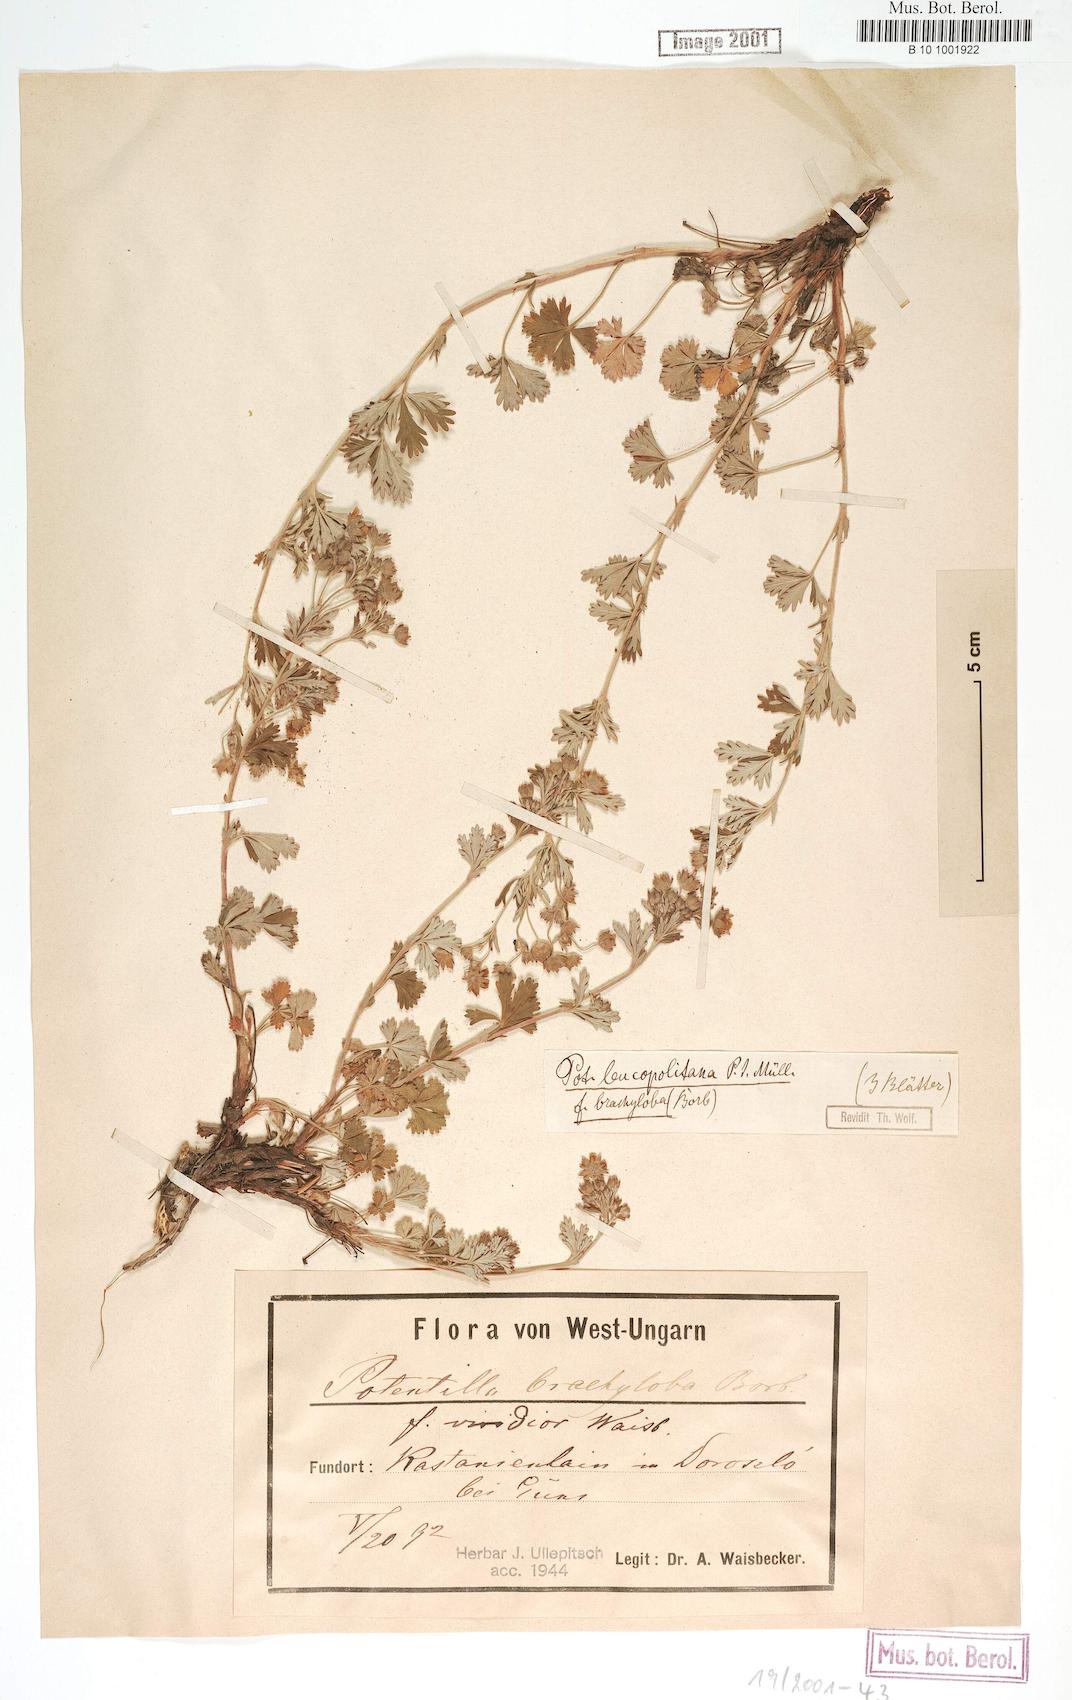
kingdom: Plantae
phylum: Tracheophyta
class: Magnoliopsida
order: Rosales
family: Rosaceae
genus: Potentilla
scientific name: Potentilla brachyloba
